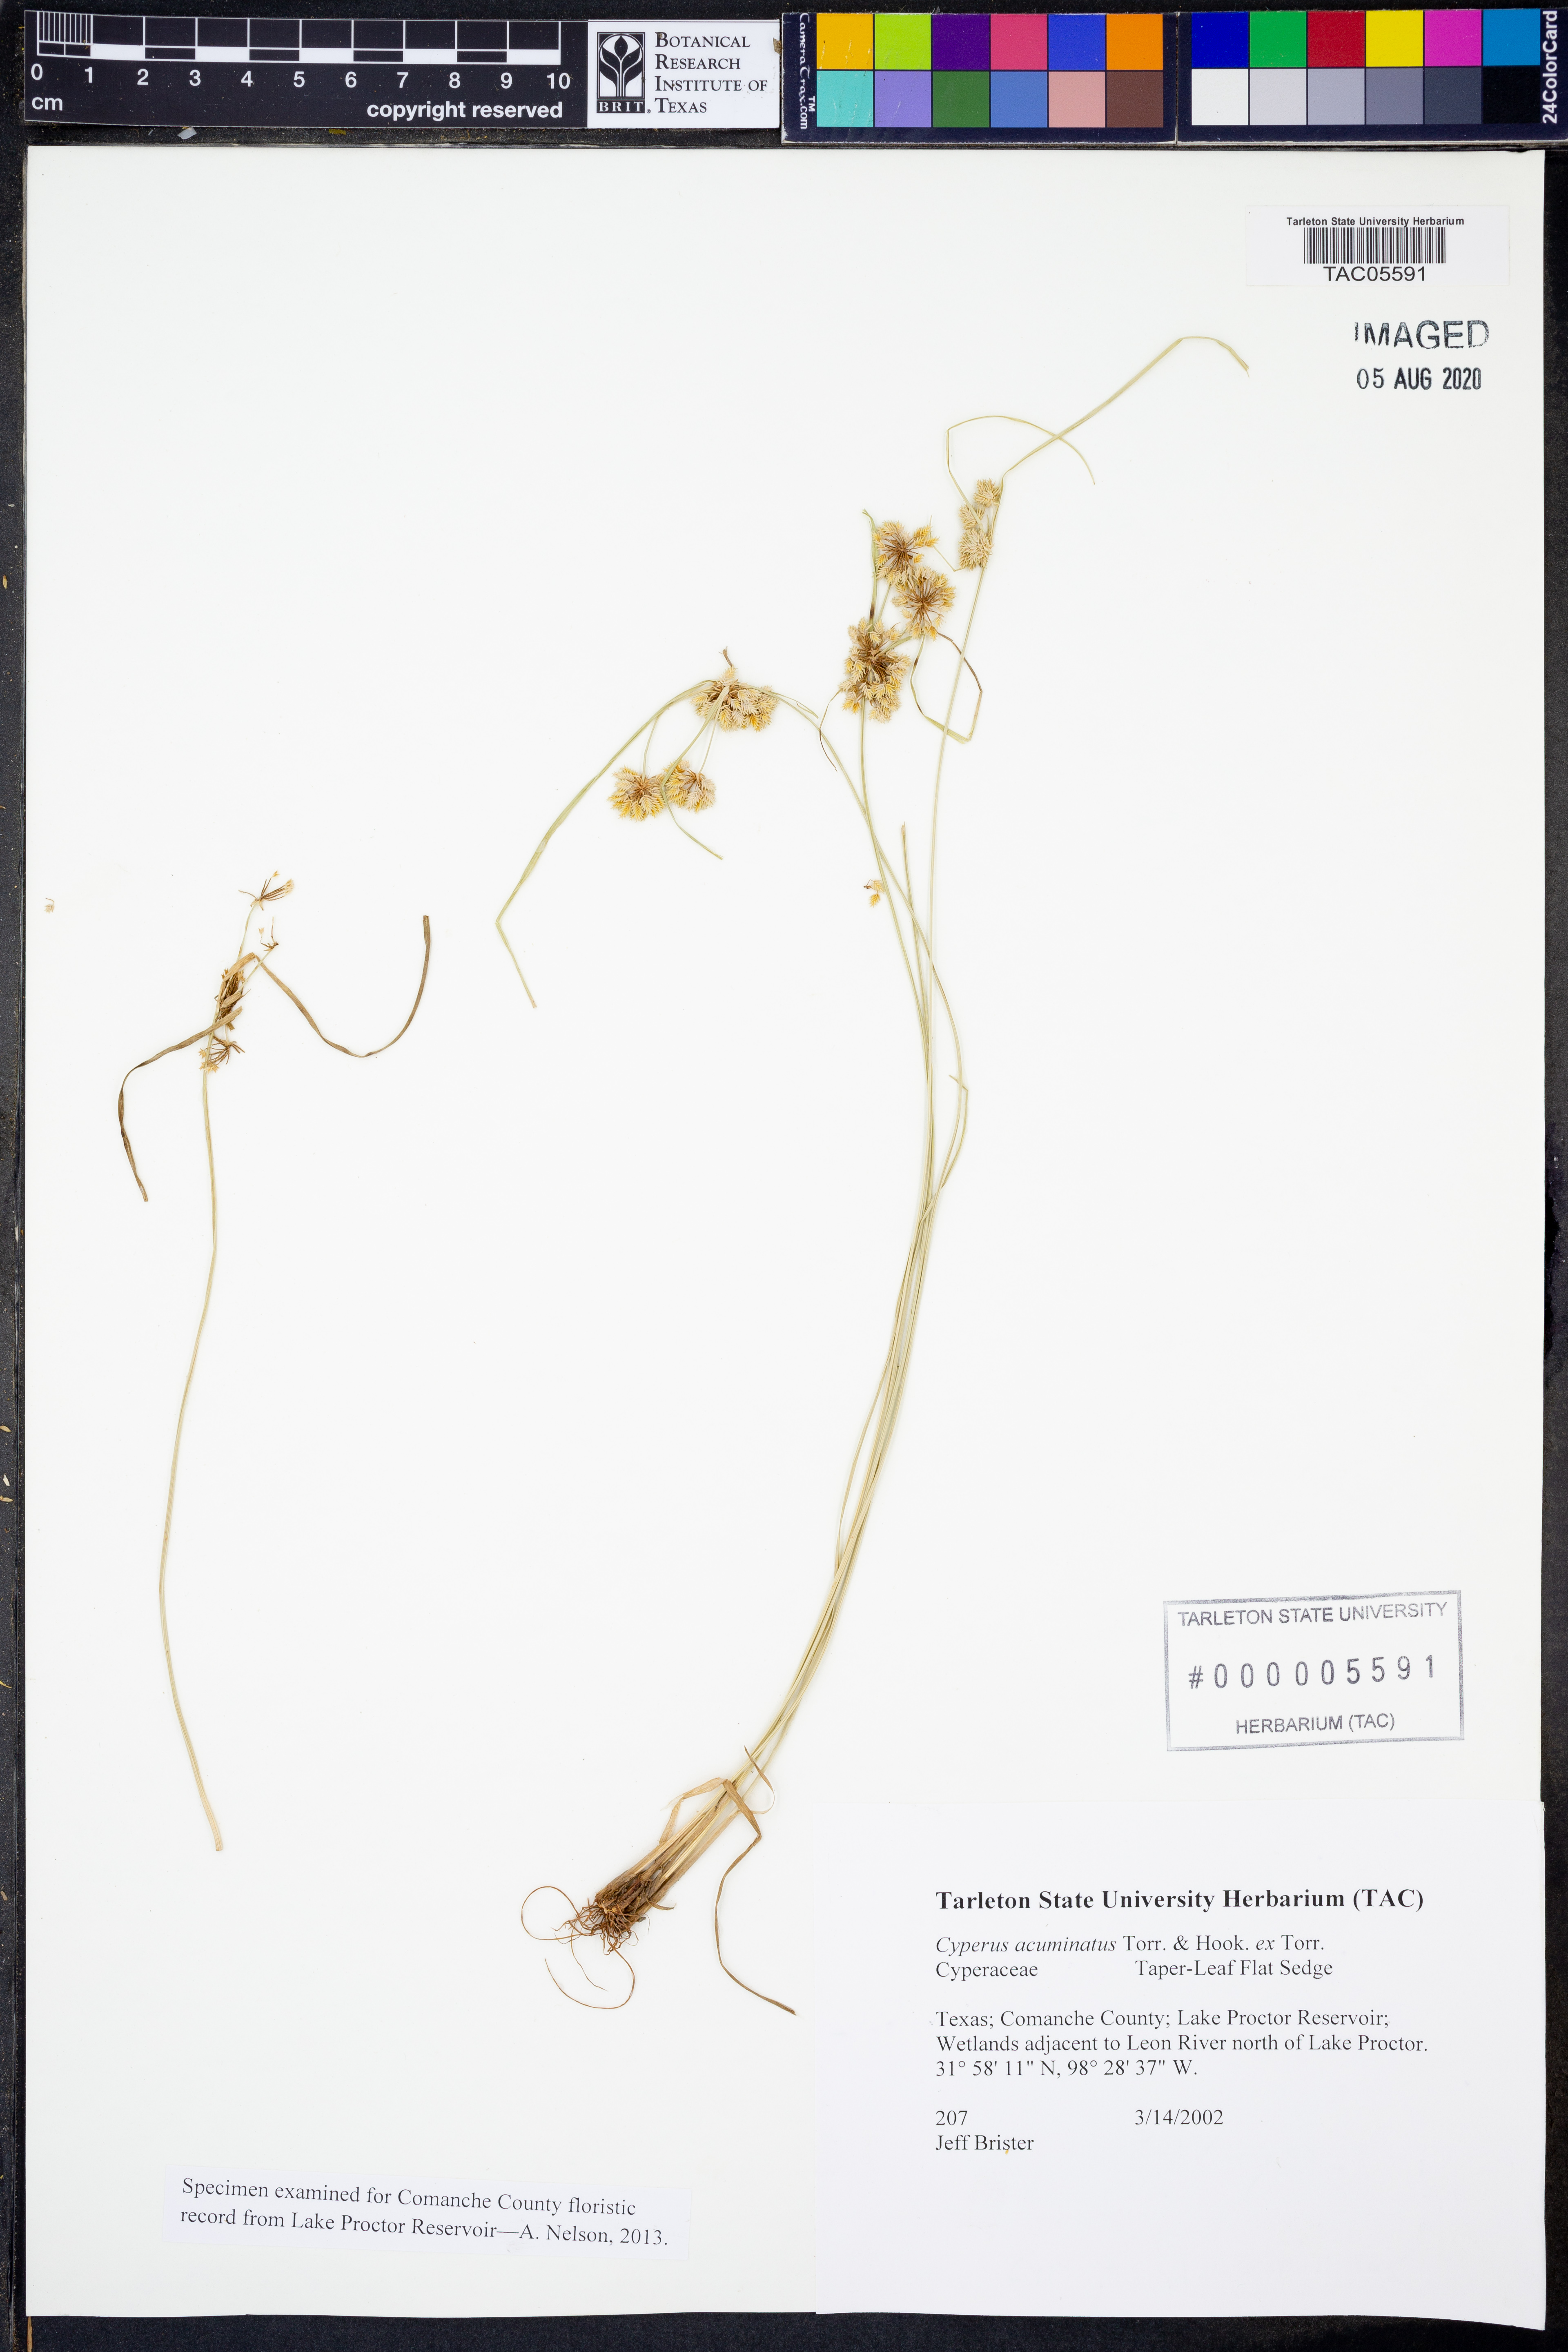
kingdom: Plantae
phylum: Tracheophyta
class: Liliopsida
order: Poales
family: Cyperaceae
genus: Cyperus
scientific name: Cyperus acuminatus
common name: Short-pointed cyperus
